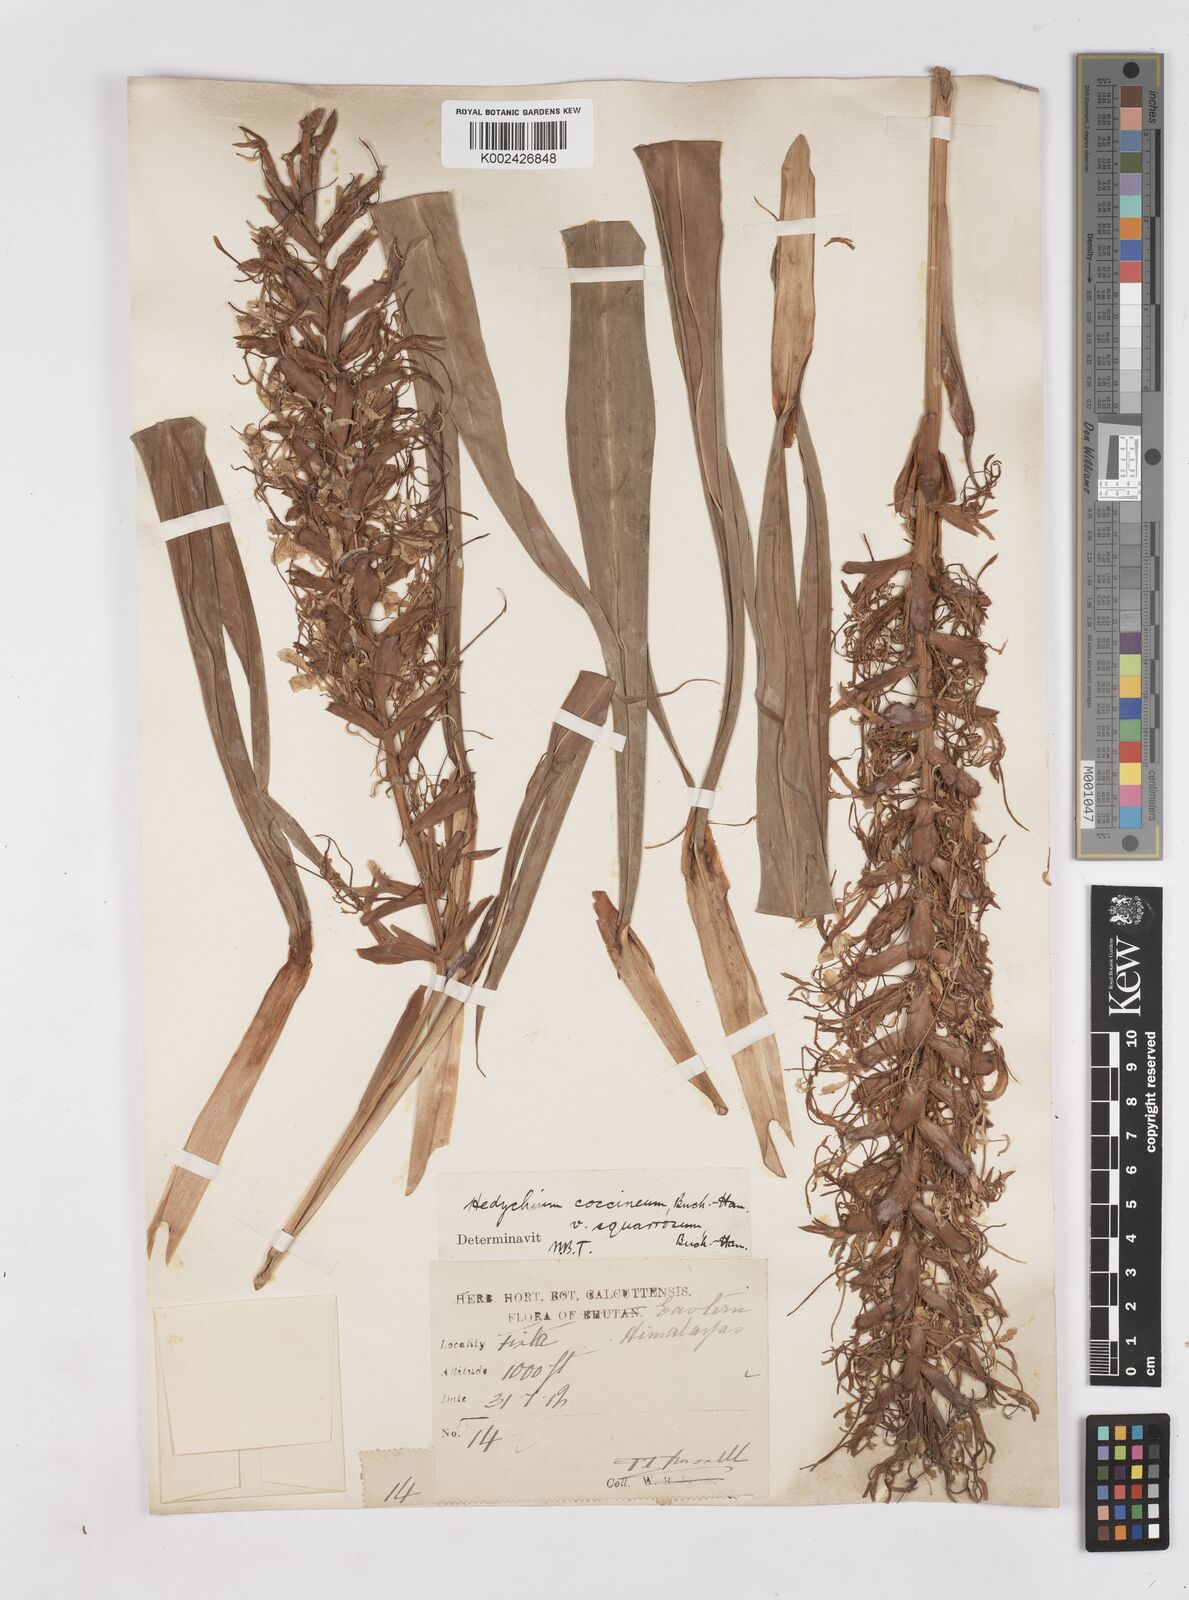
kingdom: Plantae
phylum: Tracheophyta
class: Liliopsida
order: Zingiberales
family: Zingiberaceae
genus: Hedychium
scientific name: Hedychium coccineum
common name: Red ginger-lily
